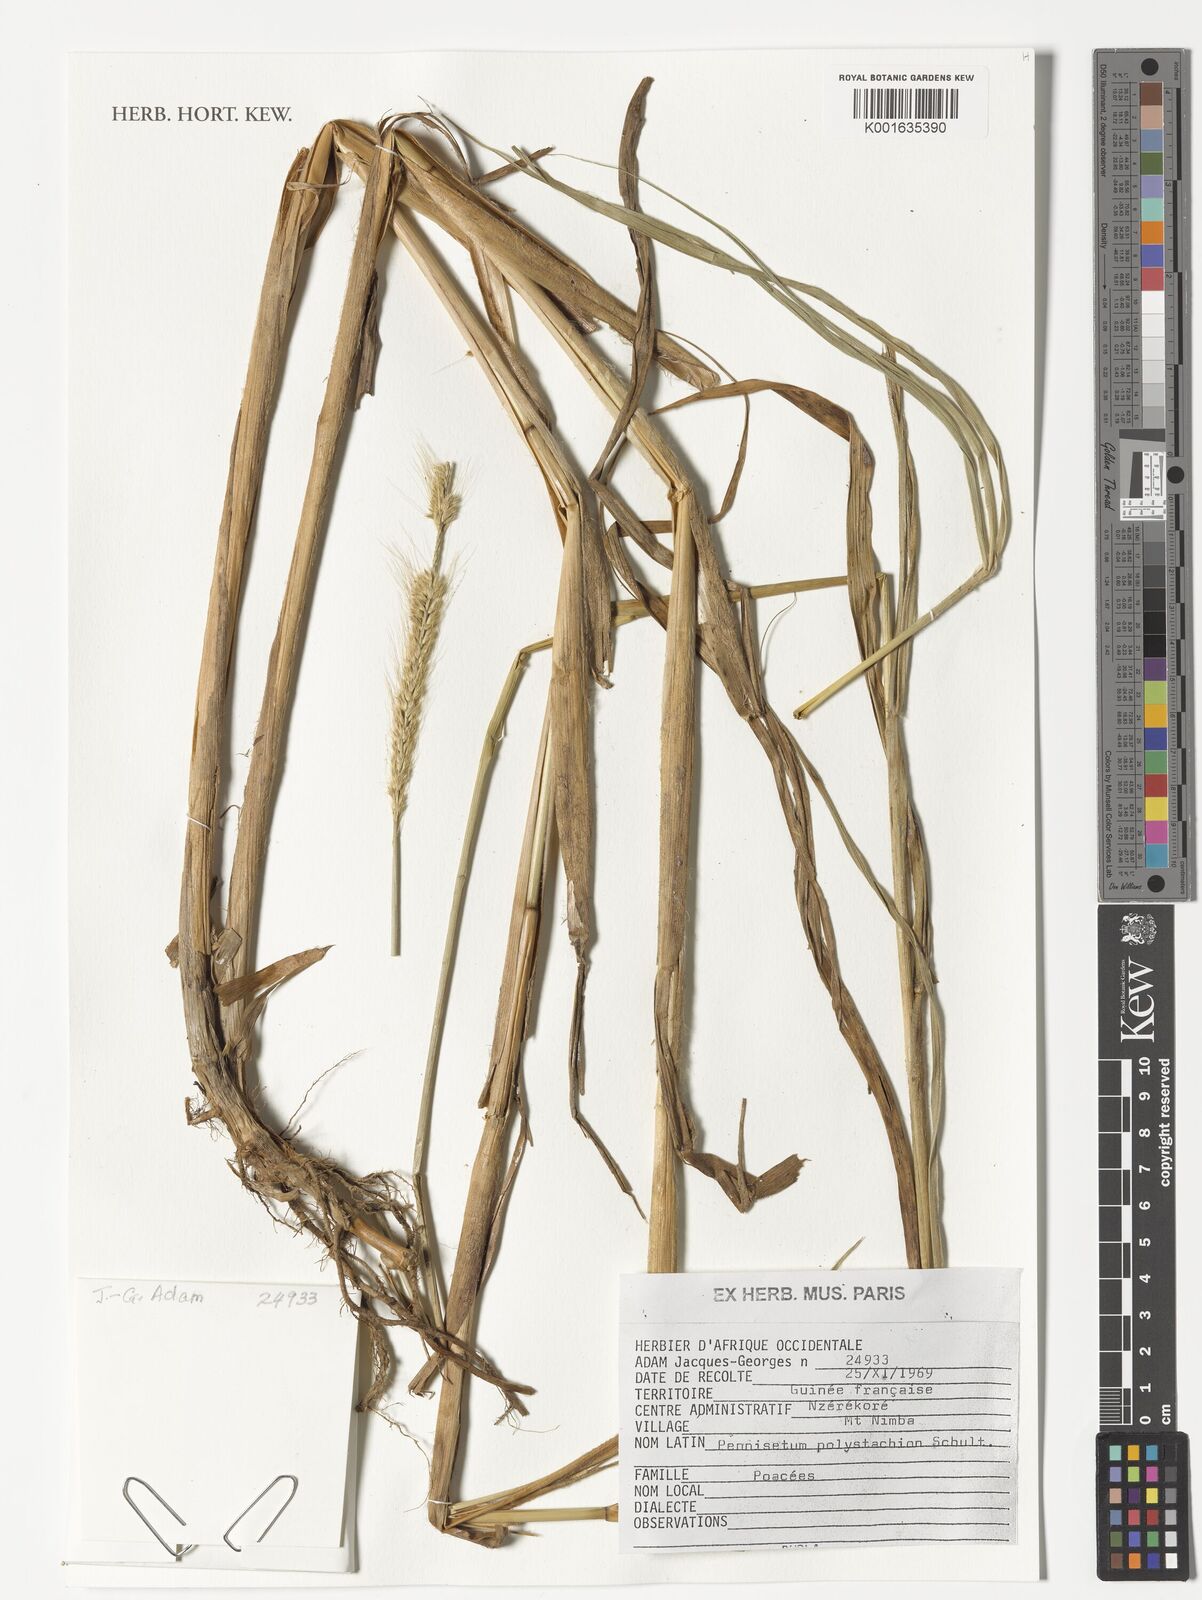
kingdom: Plantae
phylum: Tracheophyta
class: Liliopsida
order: Poales
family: Poaceae
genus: Setaria
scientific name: Setaria parviflora
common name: Knotroot bristle-grass
